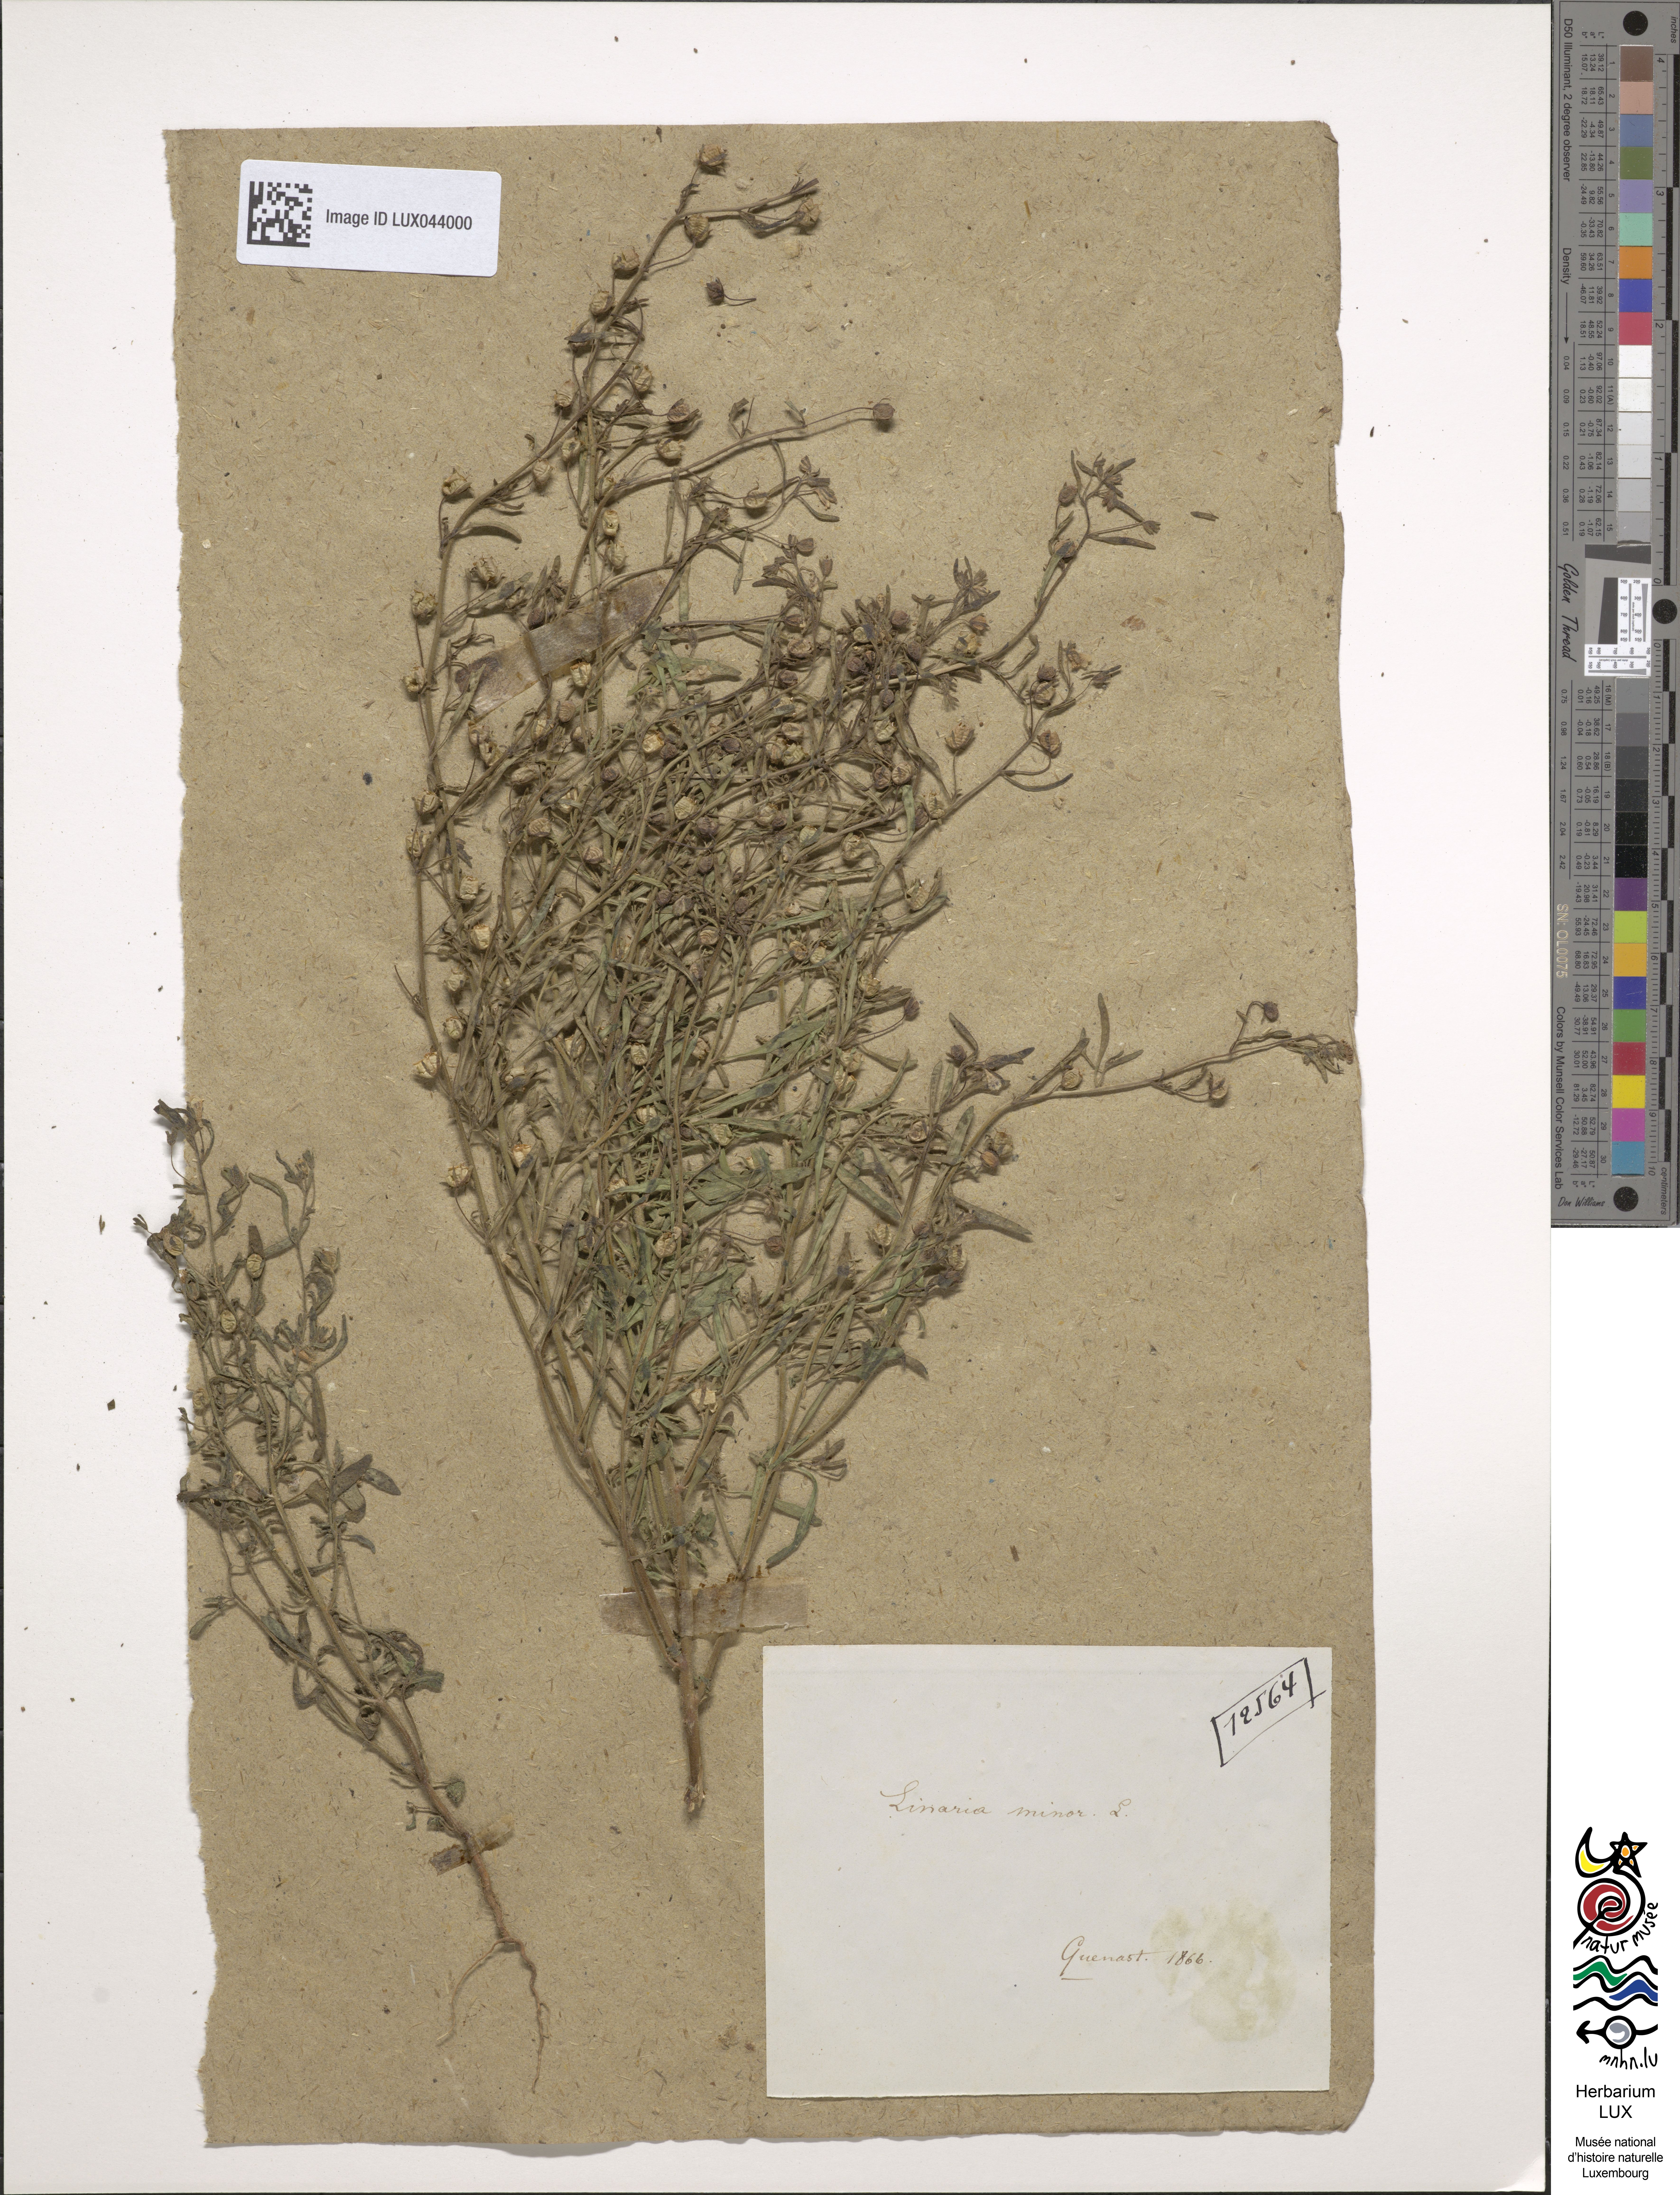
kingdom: Plantae
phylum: Tracheophyta
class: Magnoliopsida
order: Lamiales
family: Plantaginaceae
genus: Chaenorhinum
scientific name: Chaenorhinum minus
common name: Dwarf snapdragon
